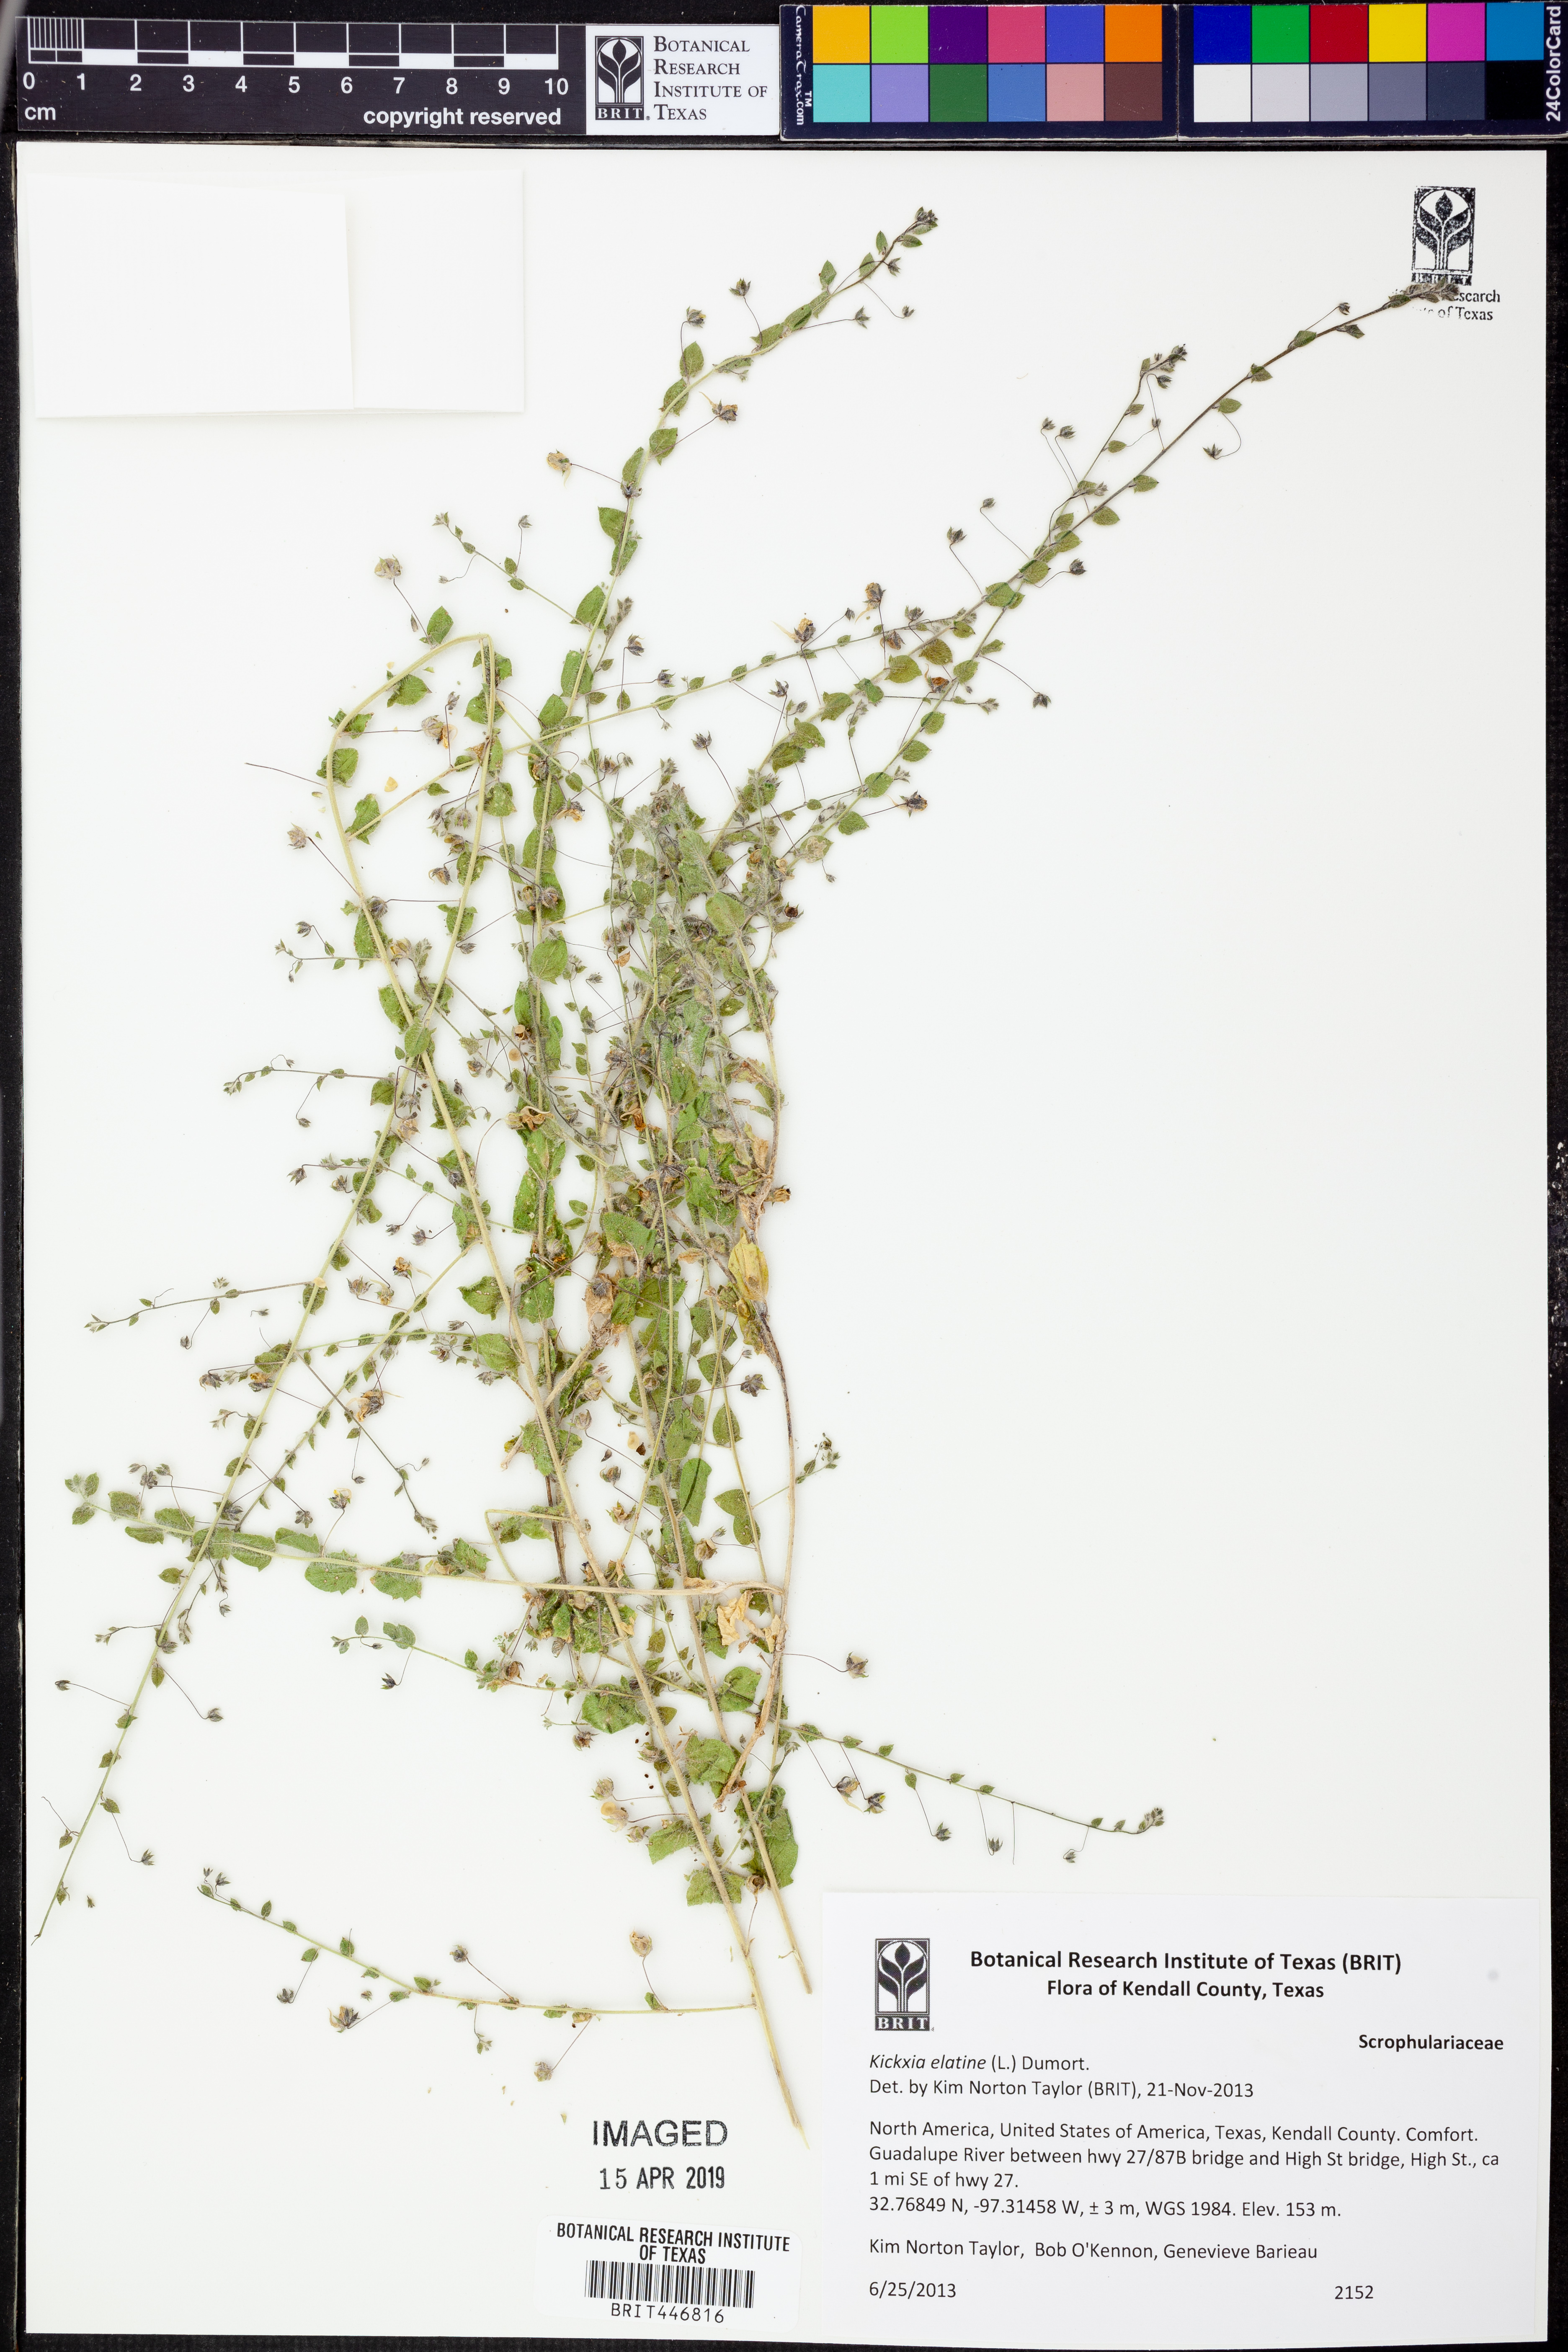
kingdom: Plantae
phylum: Tracheophyta
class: Magnoliopsida
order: Lamiales
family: Plantaginaceae
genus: Kickxia
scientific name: Kickxia elatine
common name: Sharp-leaved fluellen
